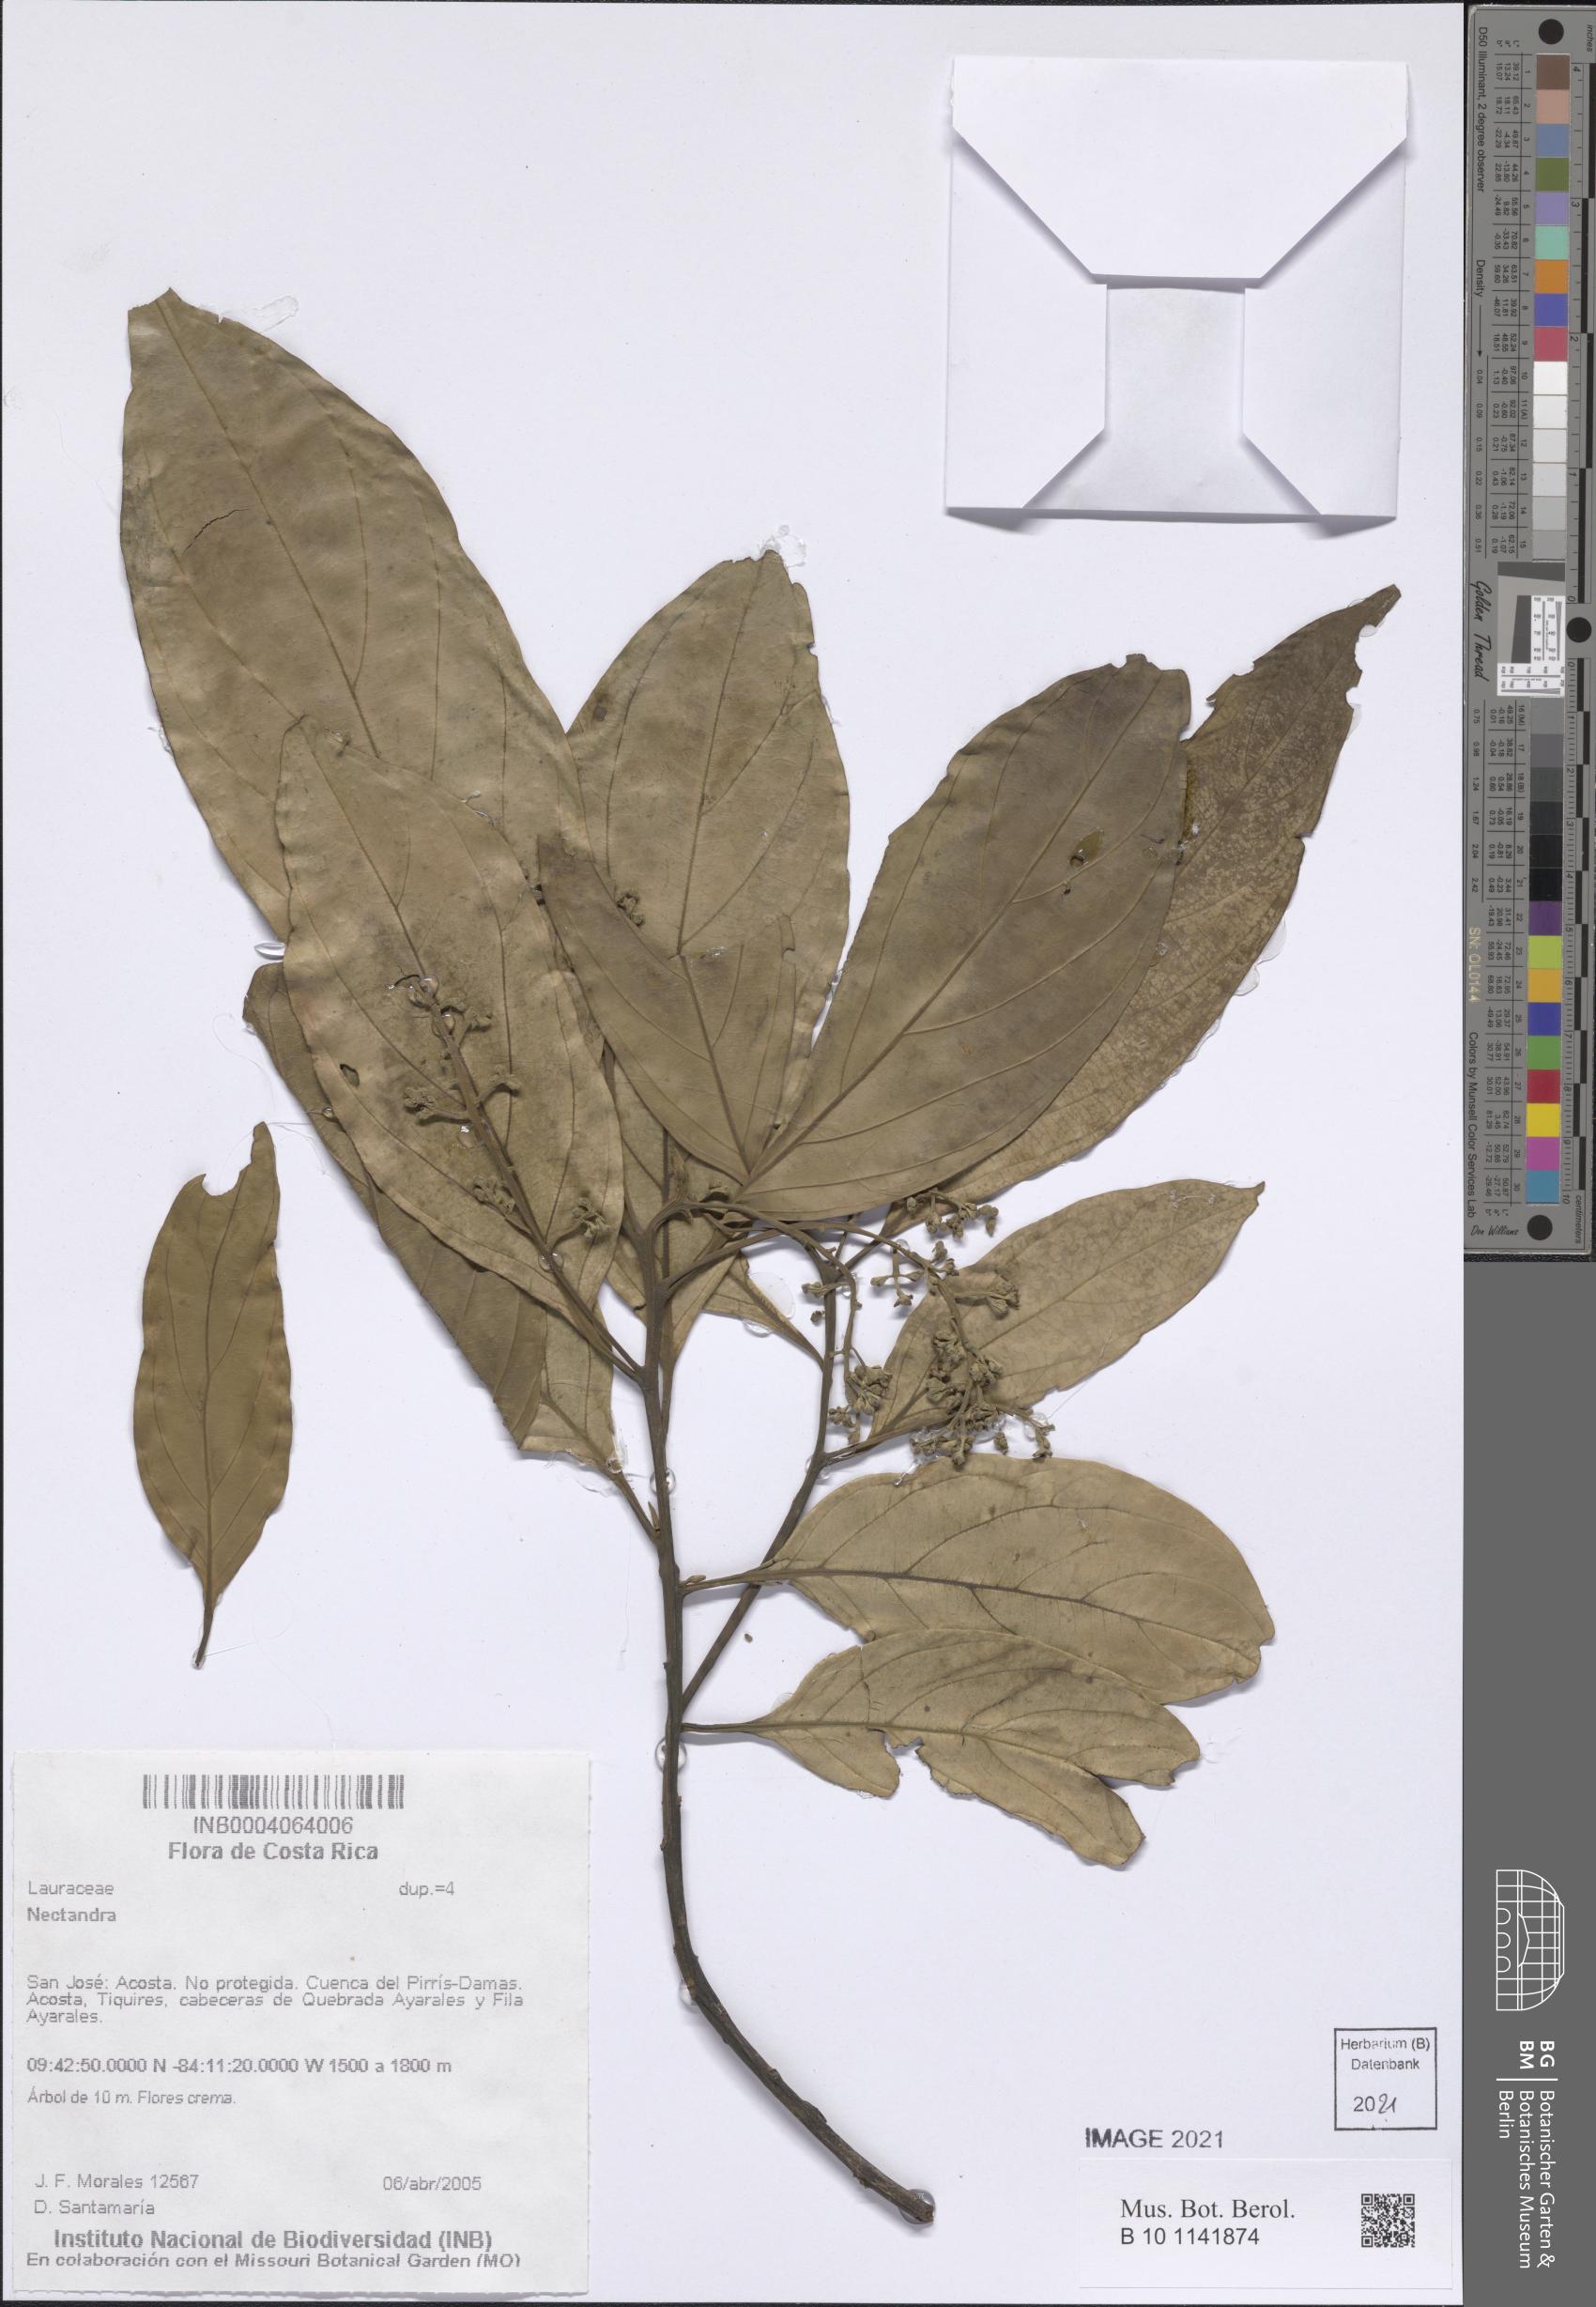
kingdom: Plantae
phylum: Tracheophyta
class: Magnoliopsida
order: Laurales
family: Lauraceae
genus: Nectandra
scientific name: Nectandra
